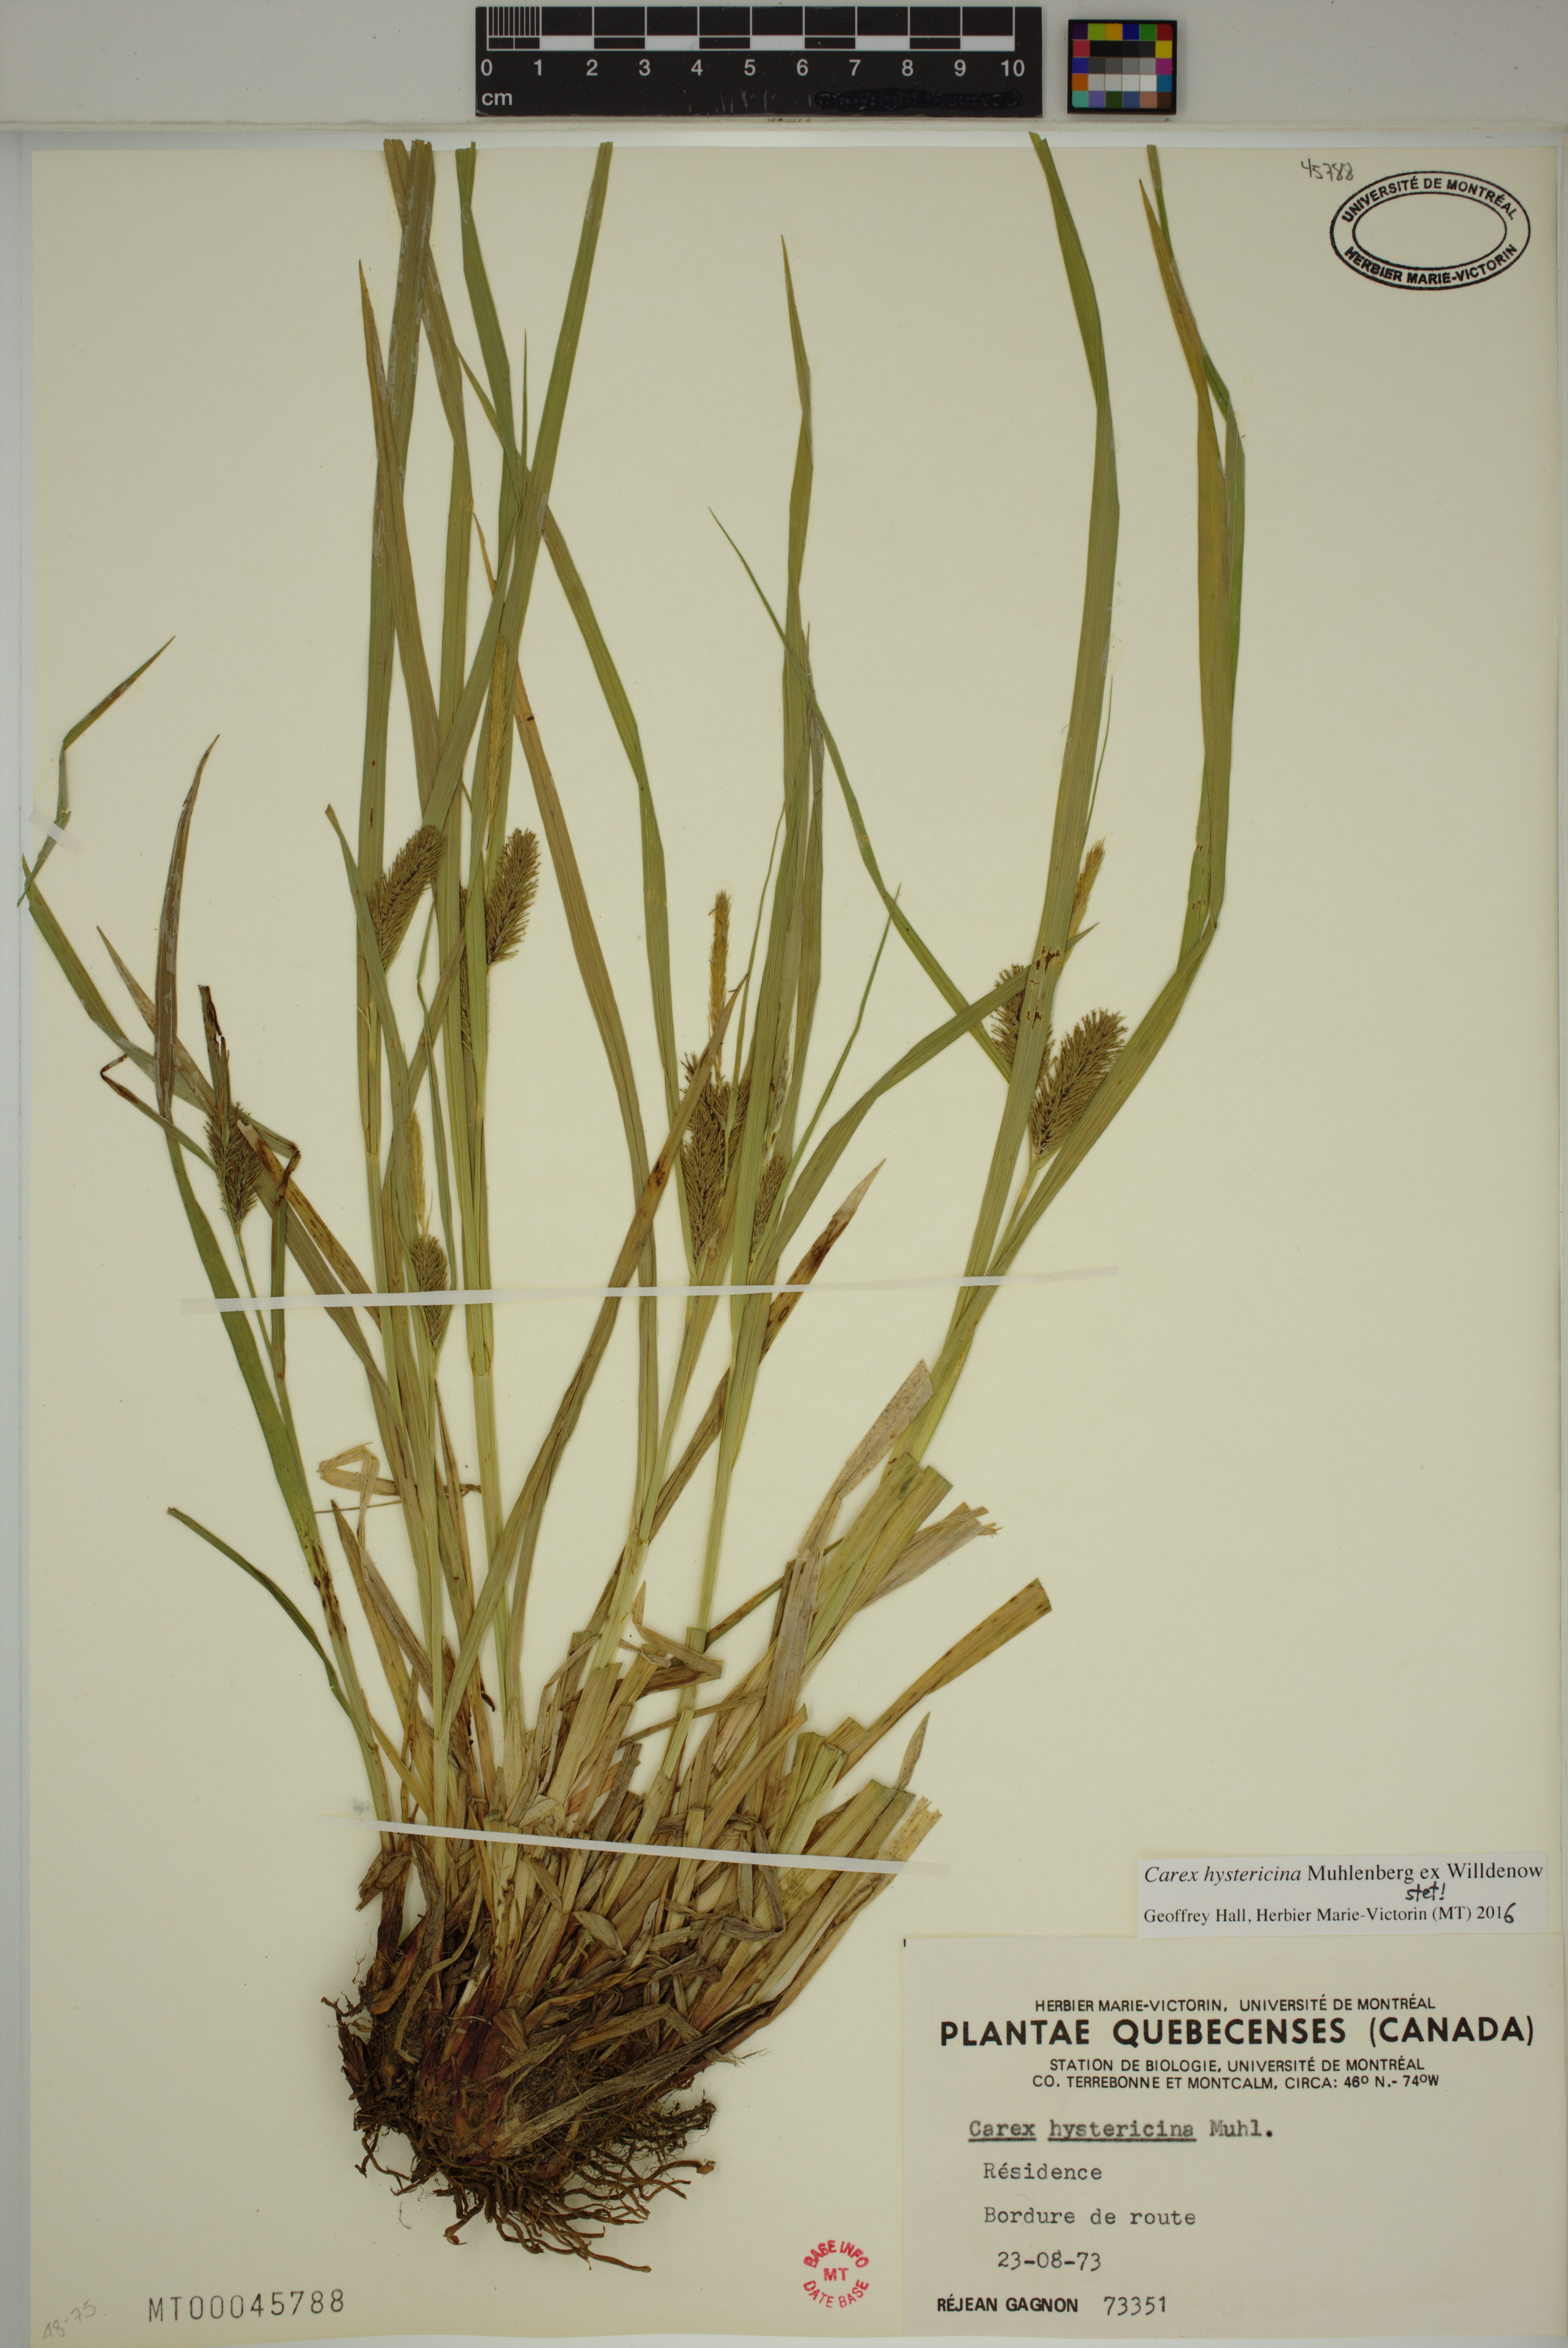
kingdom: Plantae
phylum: Tracheophyta
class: Liliopsida
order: Poales
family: Cyperaceae
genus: Carex
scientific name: Carex hystericina
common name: Bottlebrush sedge
